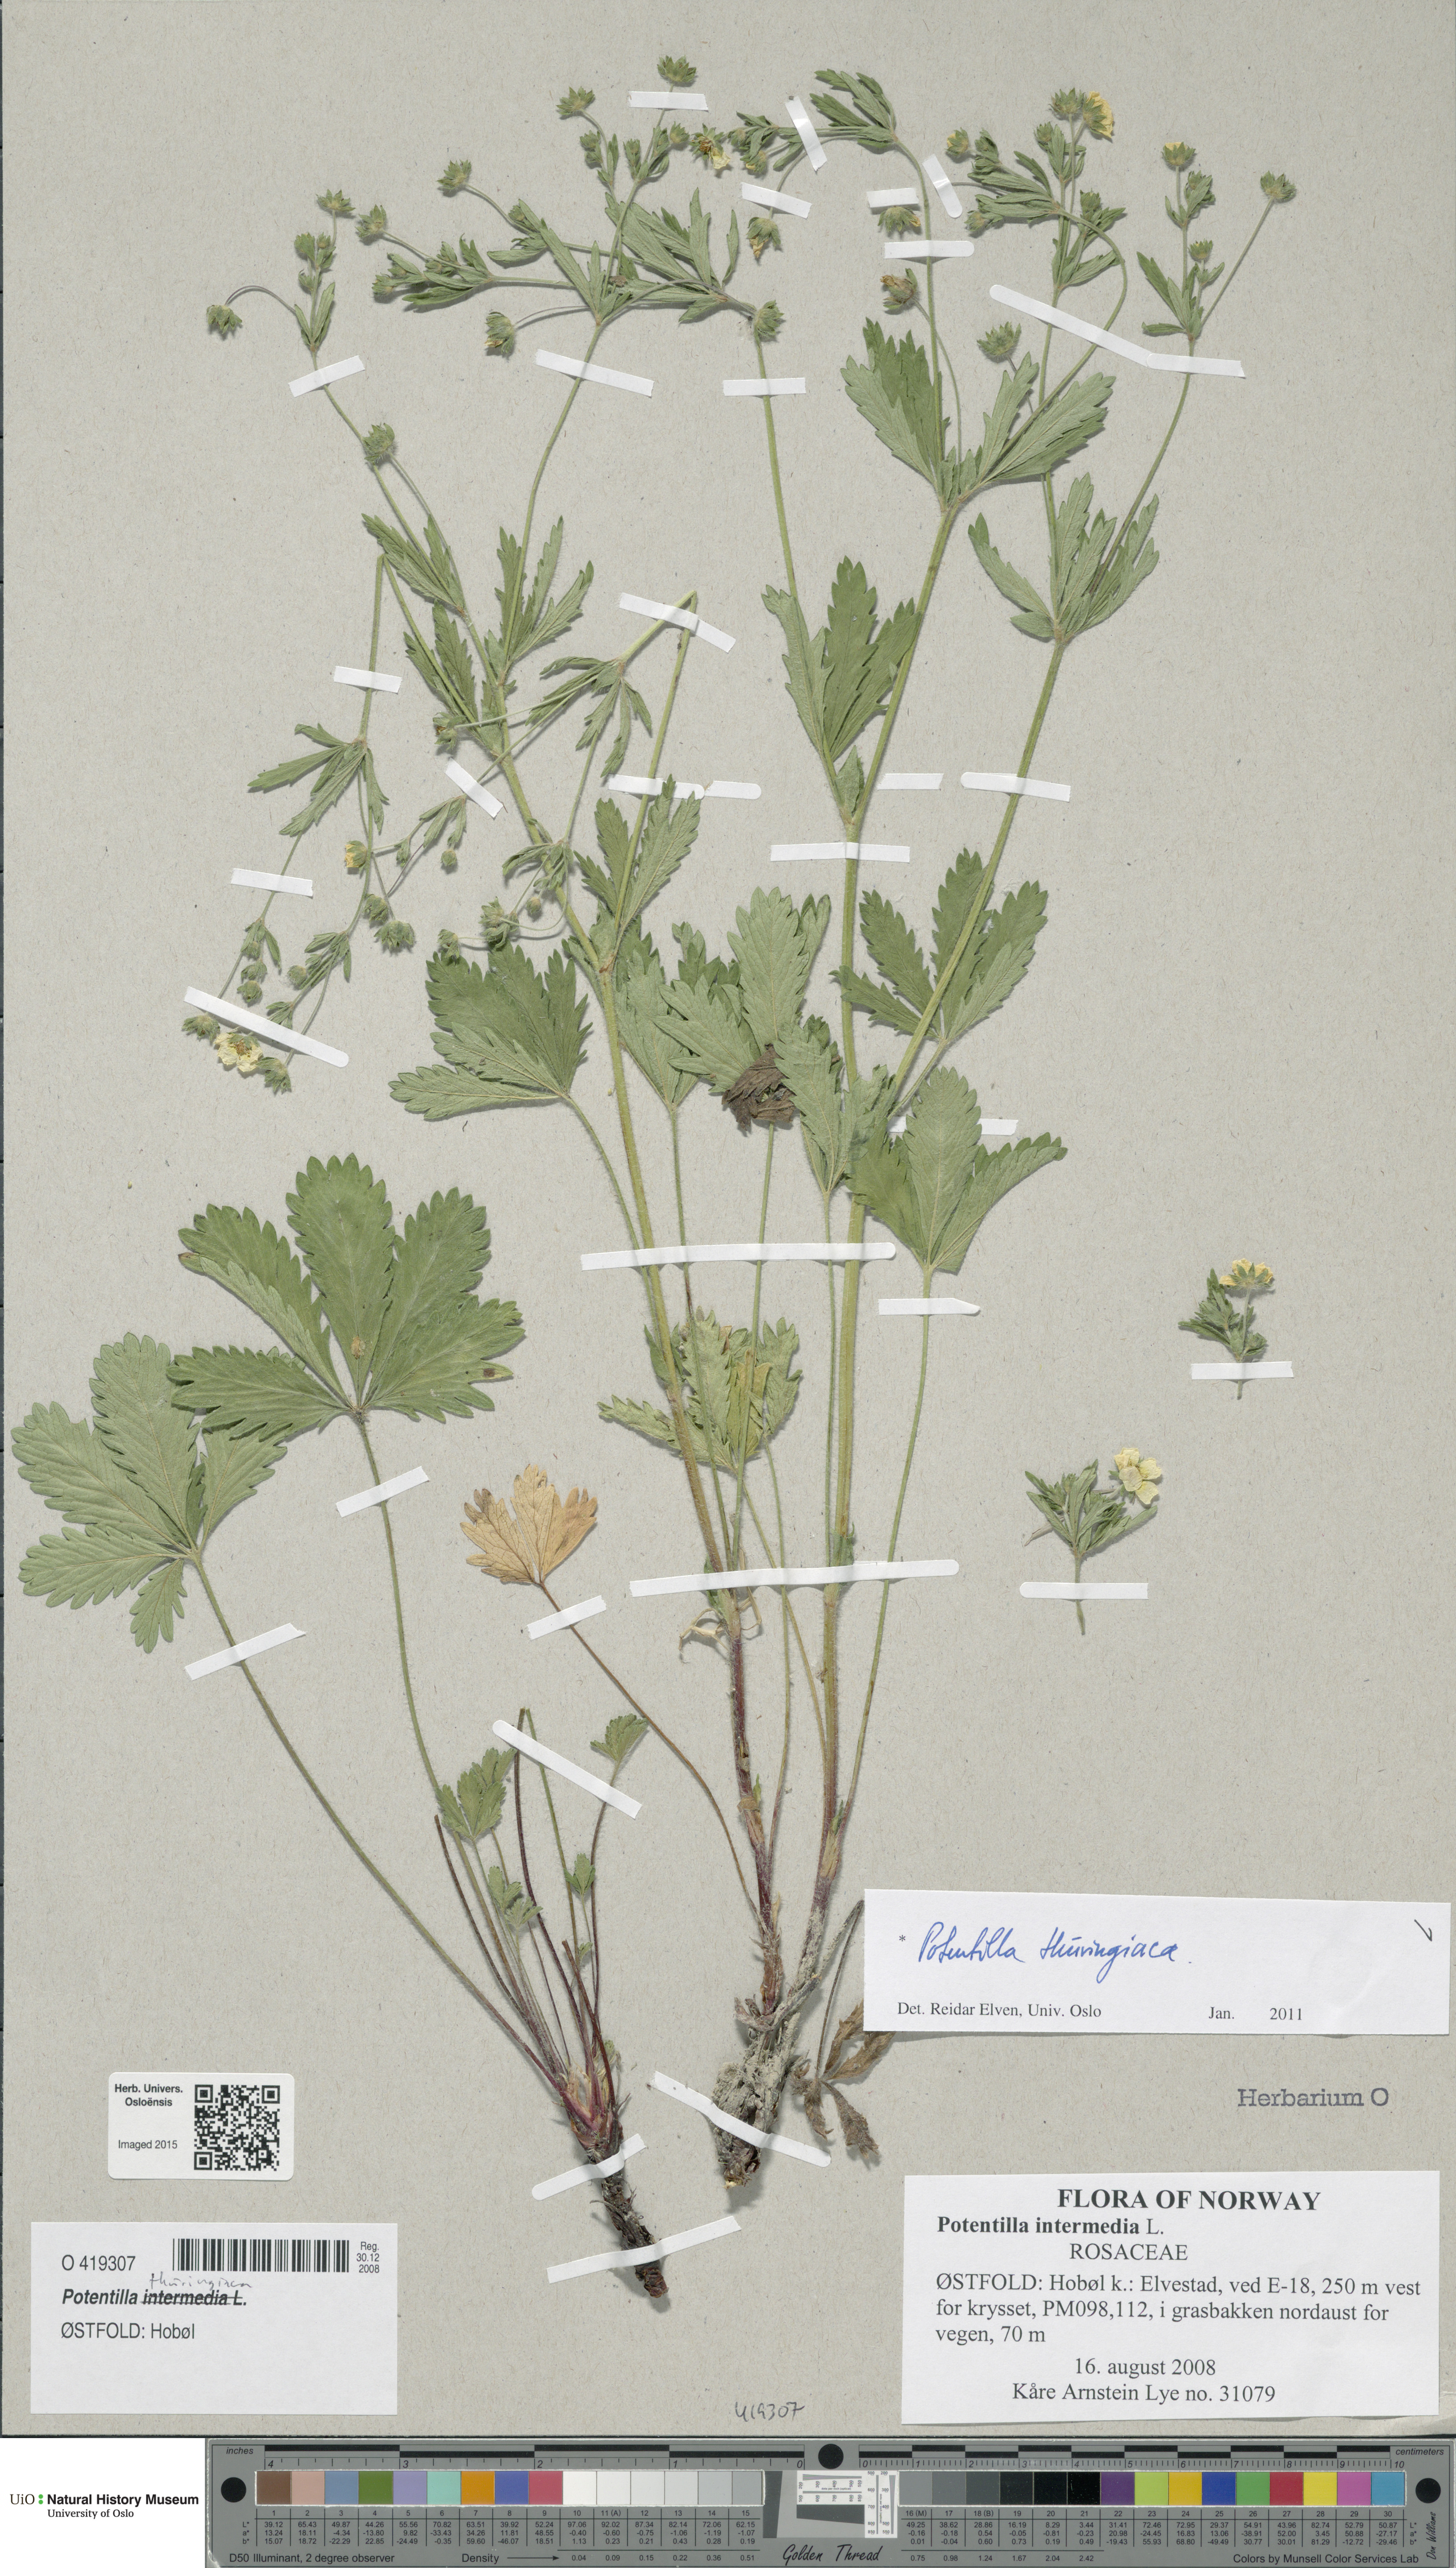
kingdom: Plantae
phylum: Tracheophyta
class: Magnoliopsida
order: Rosales
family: Rosaceae
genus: Potentilla
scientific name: Potentilla thuringiaca
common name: European cinquefoil
